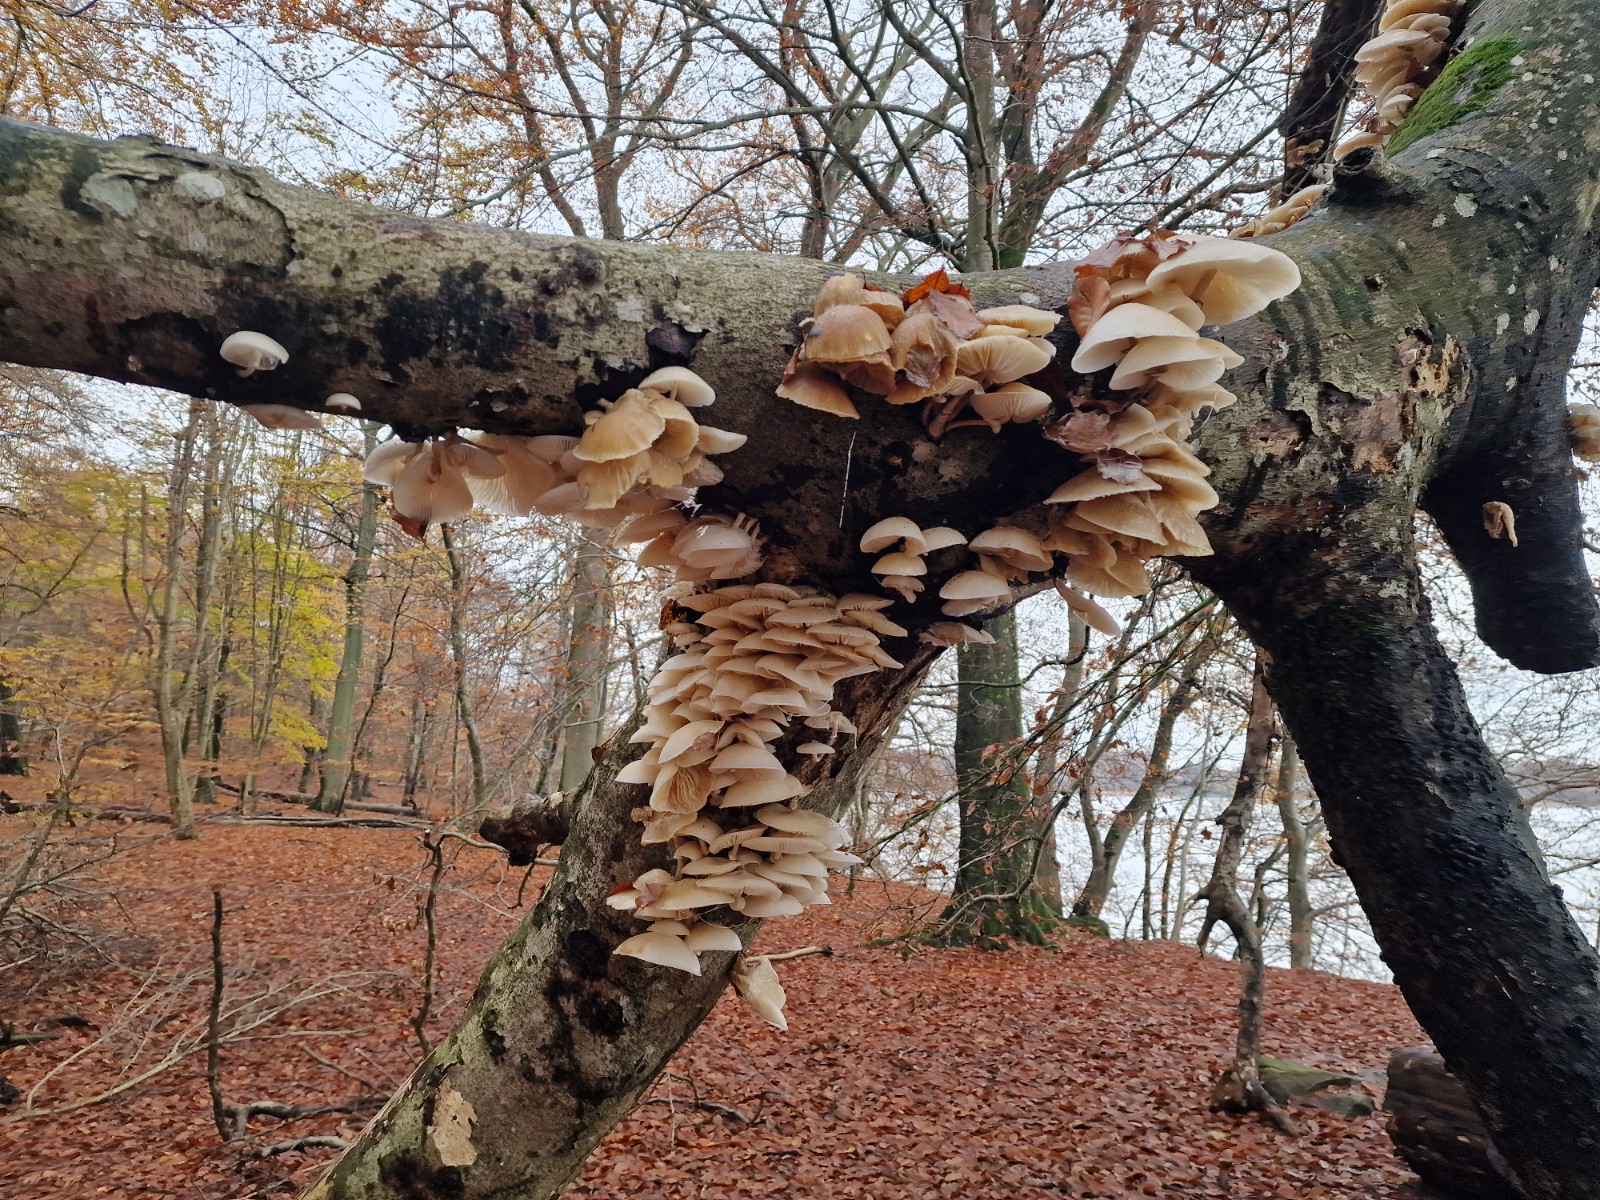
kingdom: Fungi
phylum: Basidiomycota
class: Agaricomycetes
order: Agaricales
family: Physalacriaceae
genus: Mucidula
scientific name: Mucidula mucida
